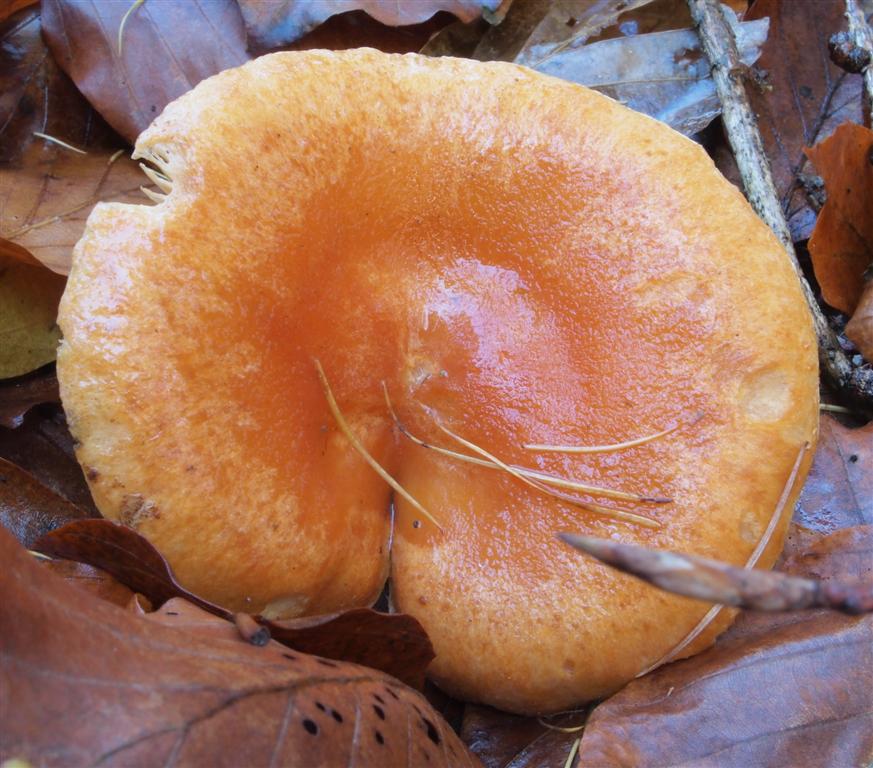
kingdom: Fungi
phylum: Basidiomycota
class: Agaricomycetes
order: Russulales
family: Russulaceae
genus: Lactarius
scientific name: Lactarius porninsis
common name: lærke-mælkehat
